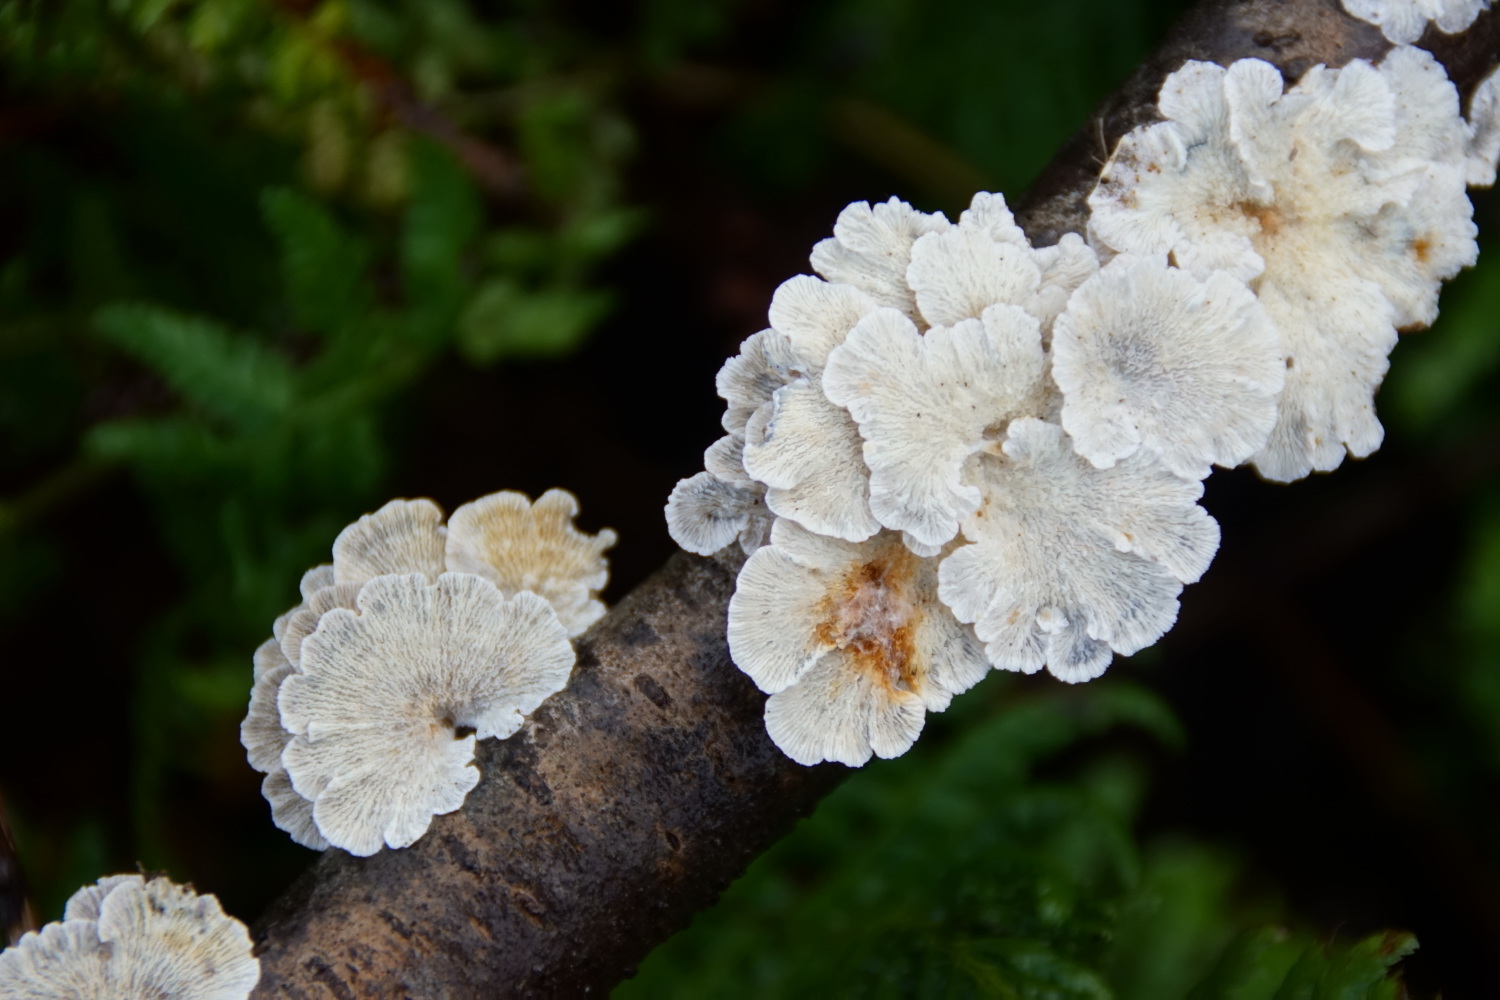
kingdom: Fungi
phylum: Basidiomycota
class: Agaricomycetes
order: Amylocorticiales
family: Amylocorticiaceae
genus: Plicaturopsis
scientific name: Plicaturopsis crispa
